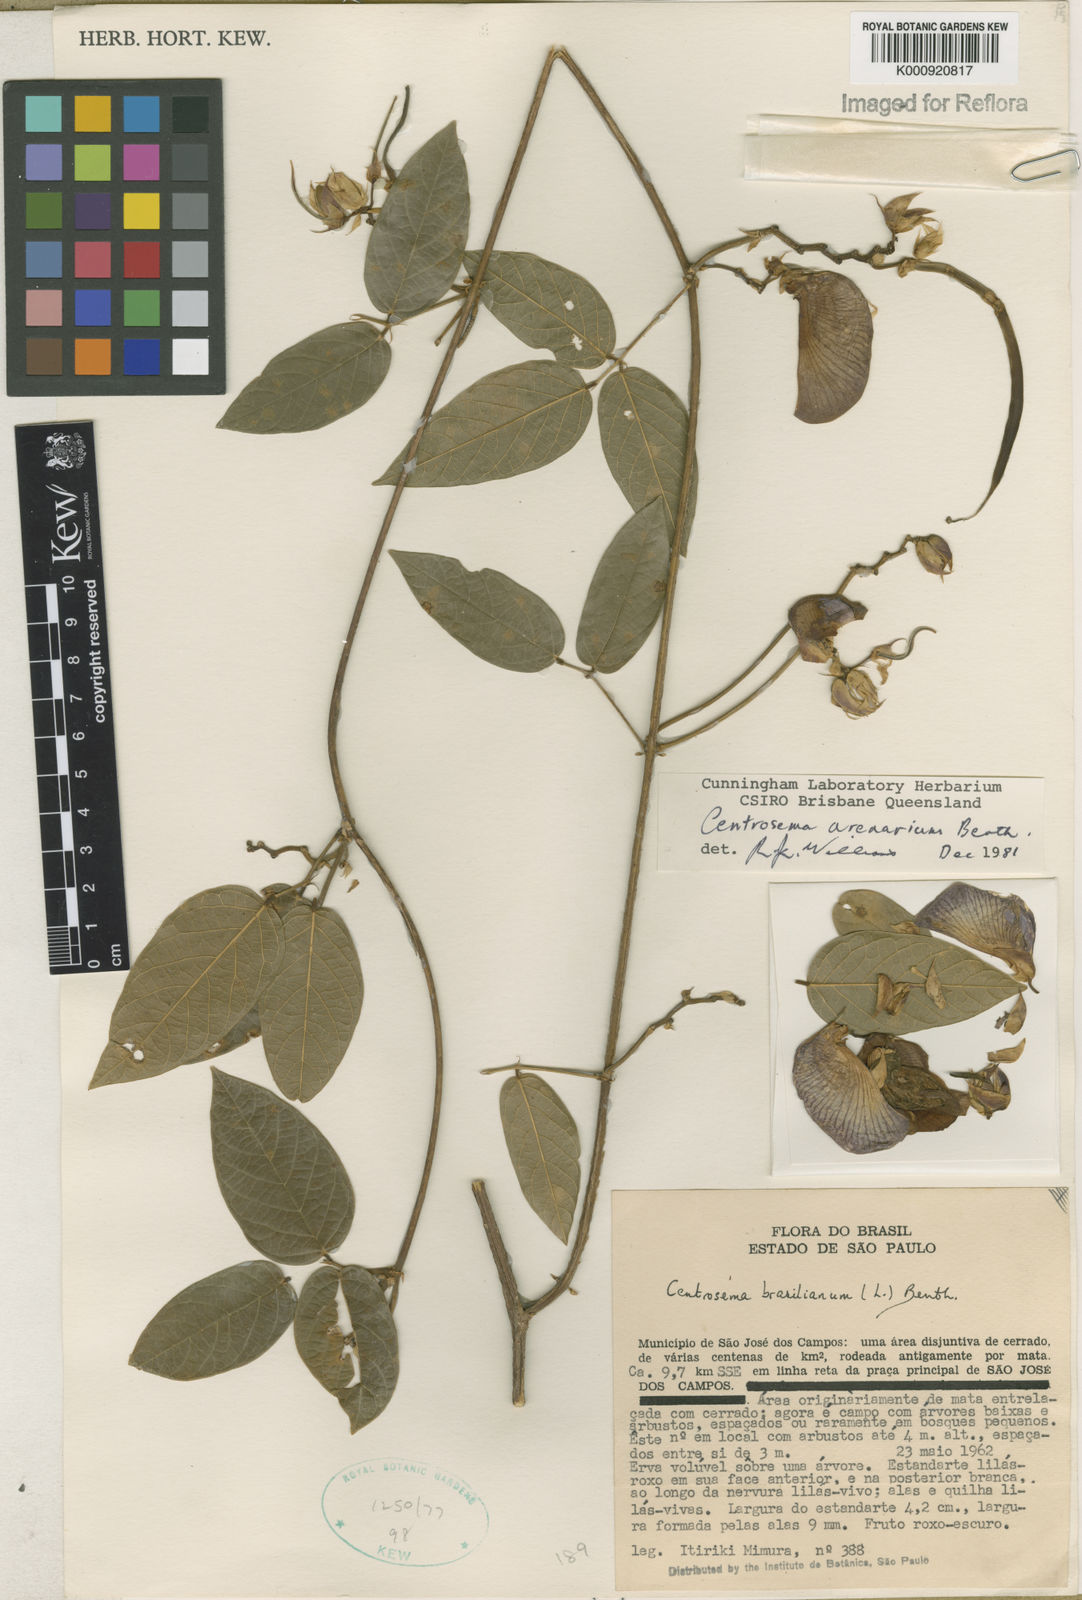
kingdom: Plantae
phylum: Tracheophyta
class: Magnoliopsida
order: Fabales
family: Fabaceae
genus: Centrosema
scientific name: Centrosema arenarium
